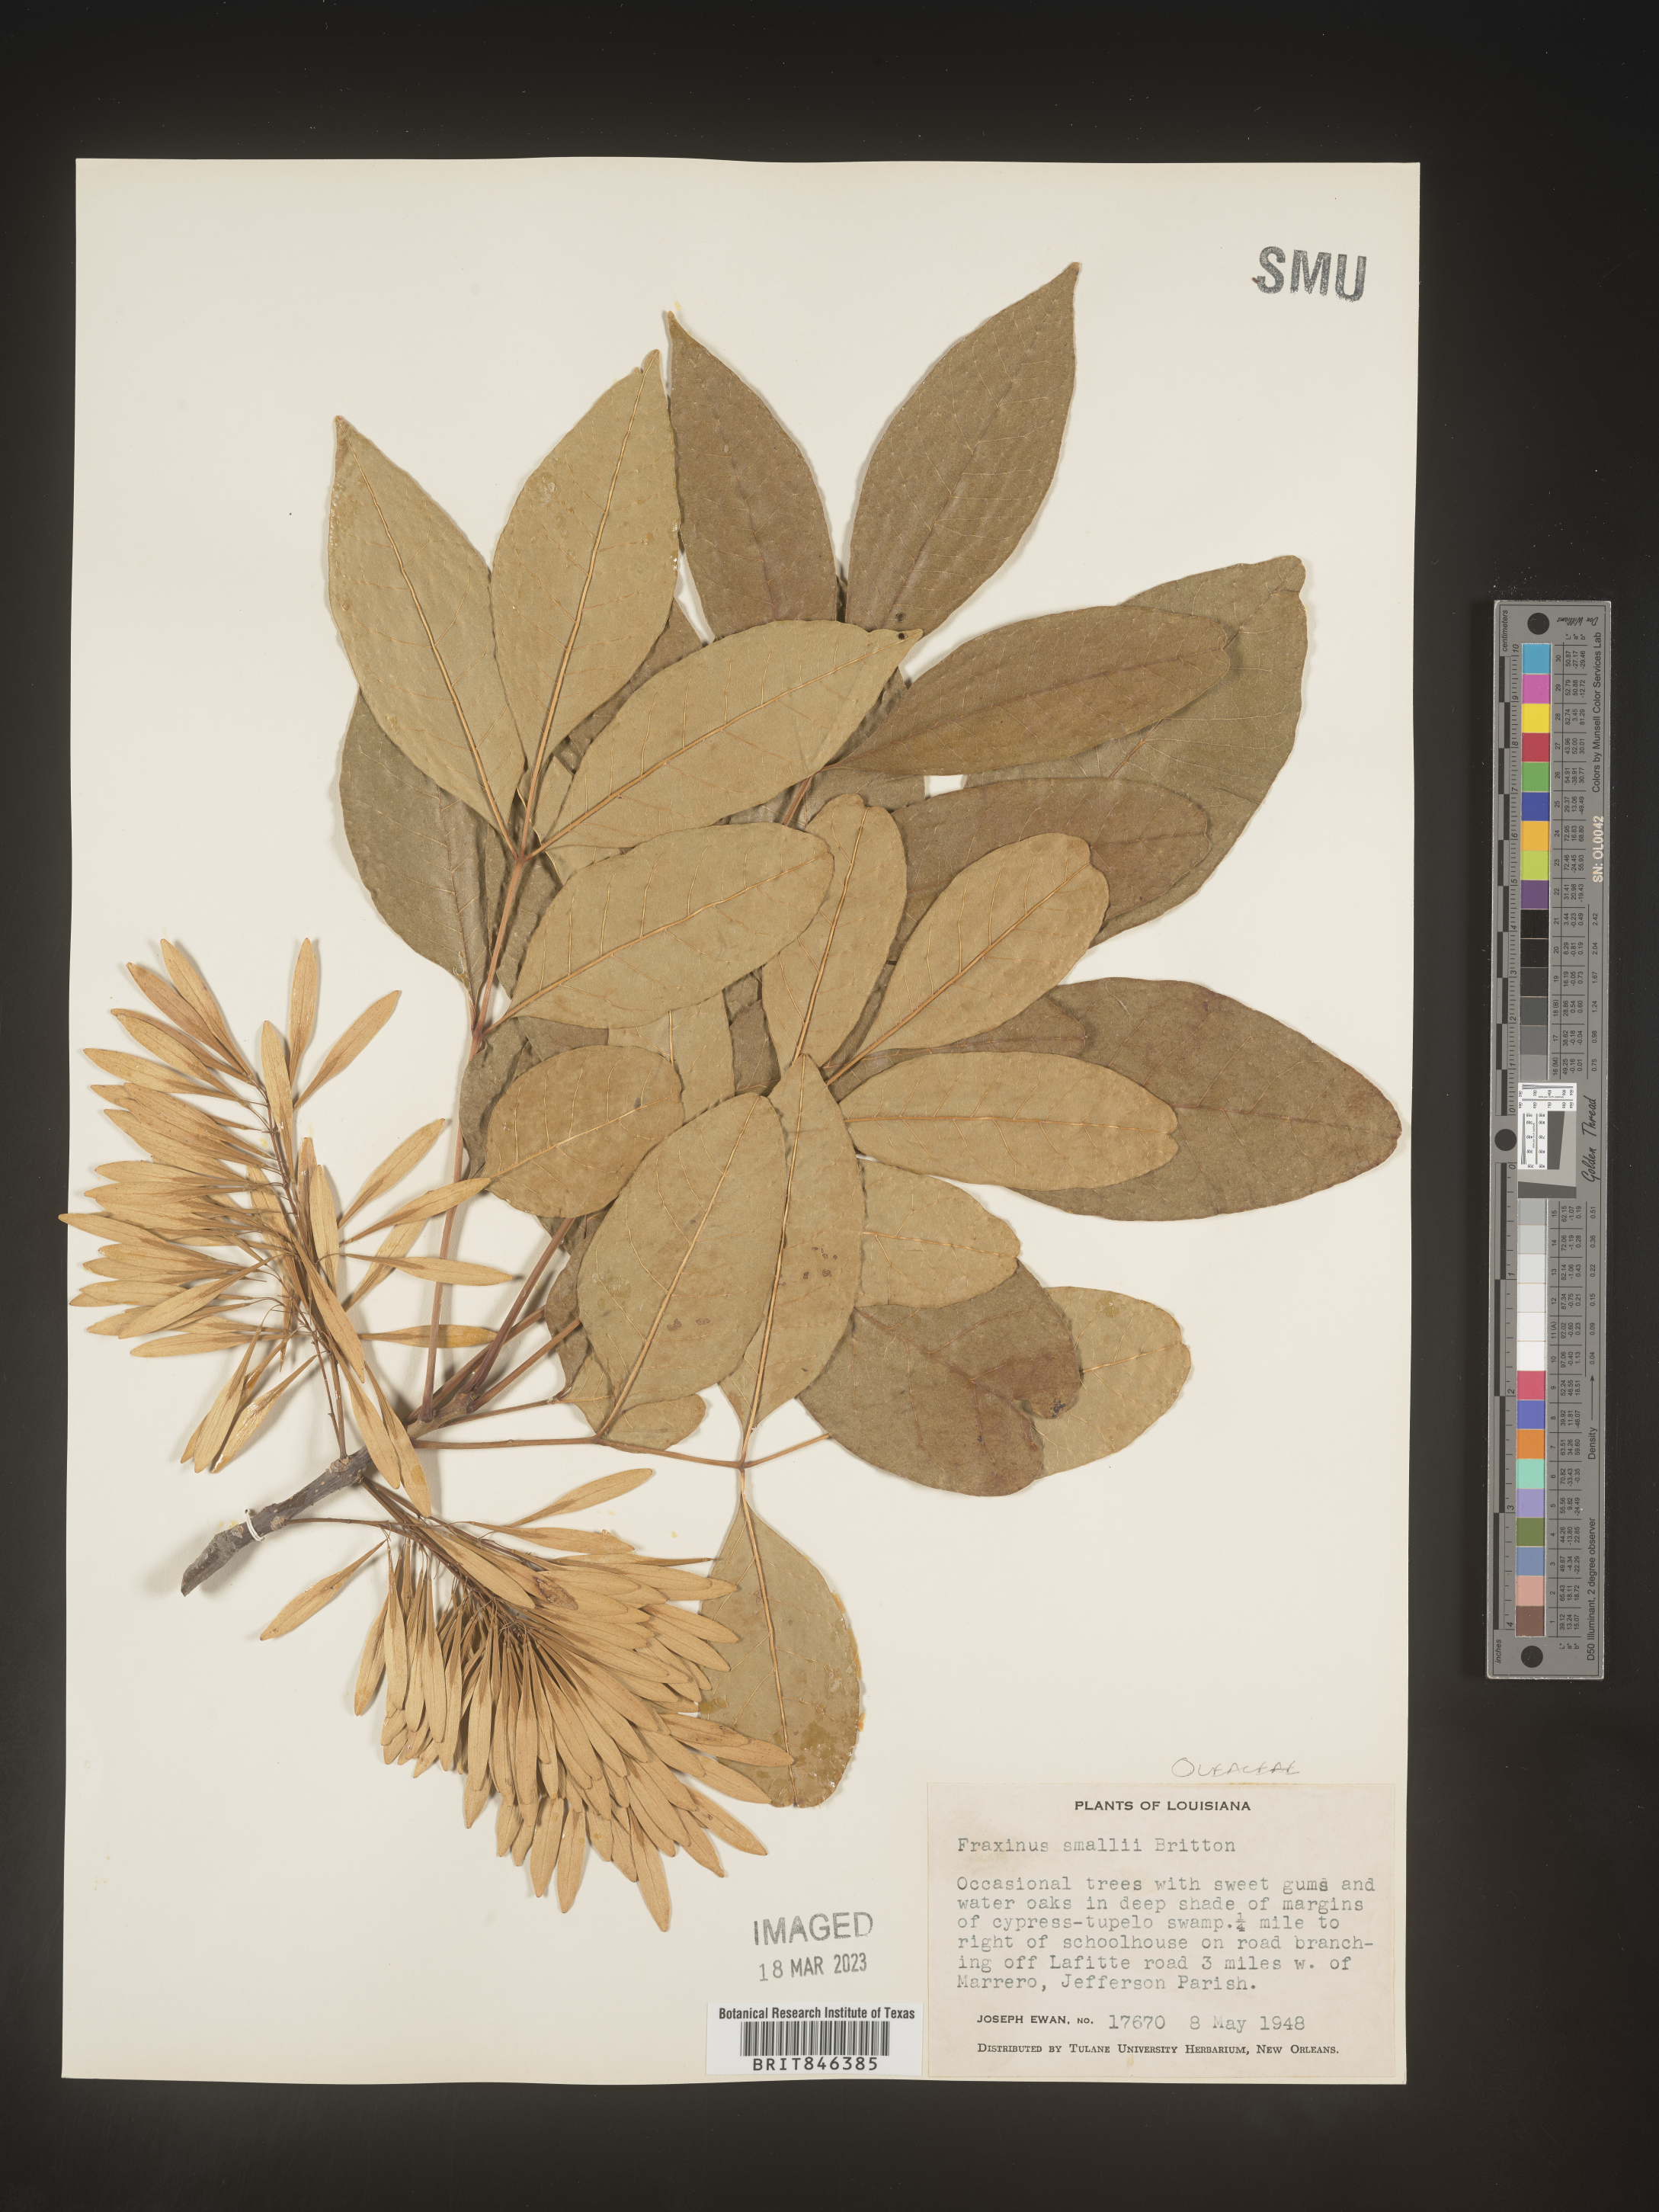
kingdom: Plantae
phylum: Tracheophyta
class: Magnoliopsida
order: Lamiales
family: Oleaceae
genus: Fraxinus
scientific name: Fraxinus pennsylvanica
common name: Green ash
